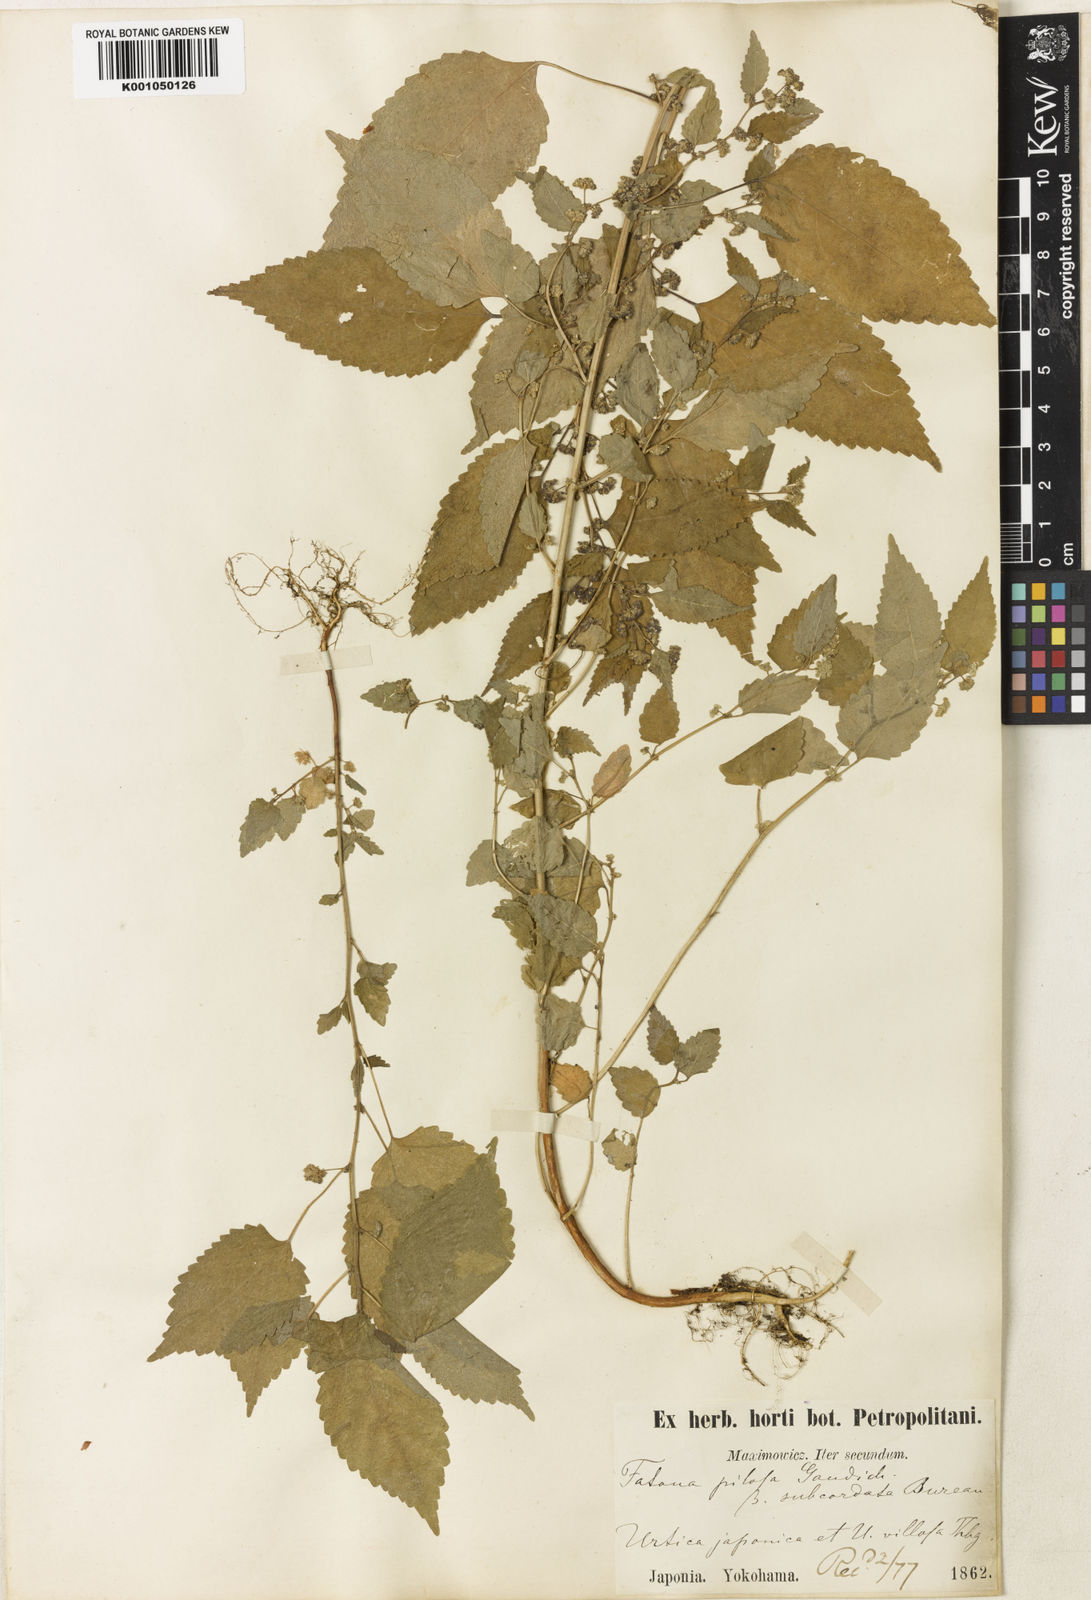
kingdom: Plantae
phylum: Tracheophyta
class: Magnoliopsida
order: Rosales
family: Moraceae
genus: Fatoua
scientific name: Fatoua villosa
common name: Hairy crabweed
